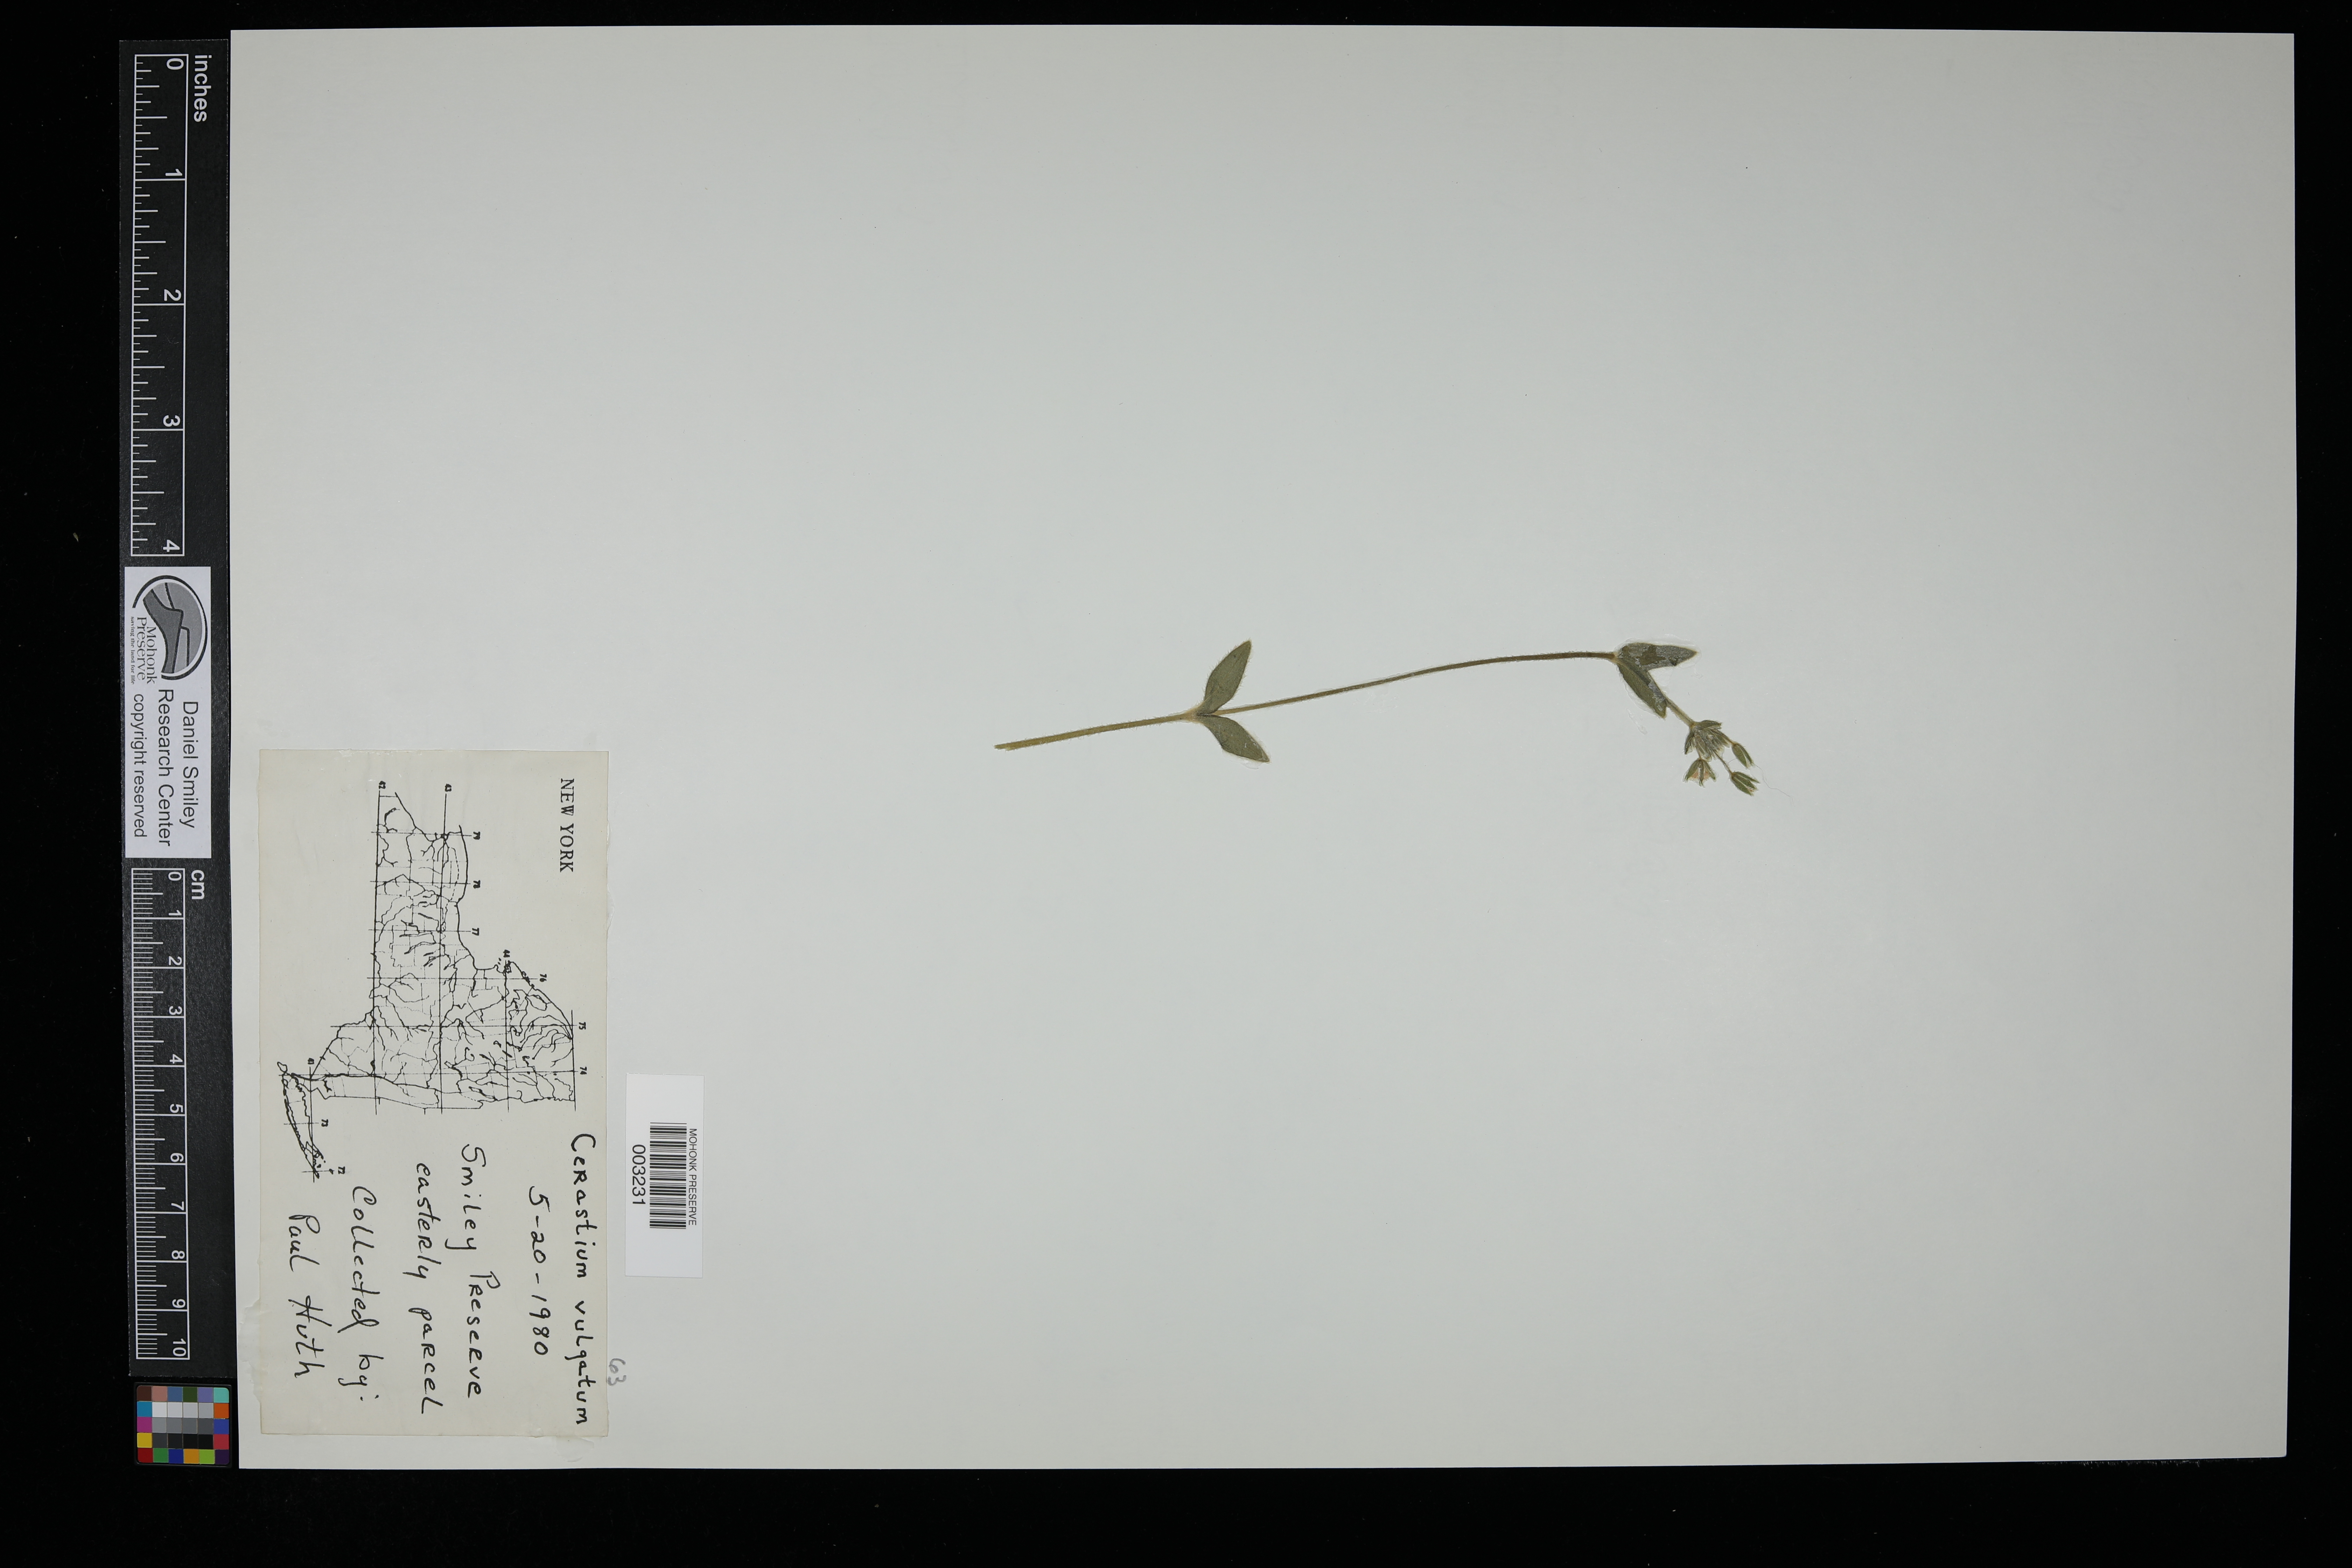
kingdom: Plantae
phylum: Tracheophyta
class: Magnoliopsida
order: Caryophyllales
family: Caryophyllaceae
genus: Cerastium
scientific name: Cerastium glomeratum
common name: Sticky chickweed
